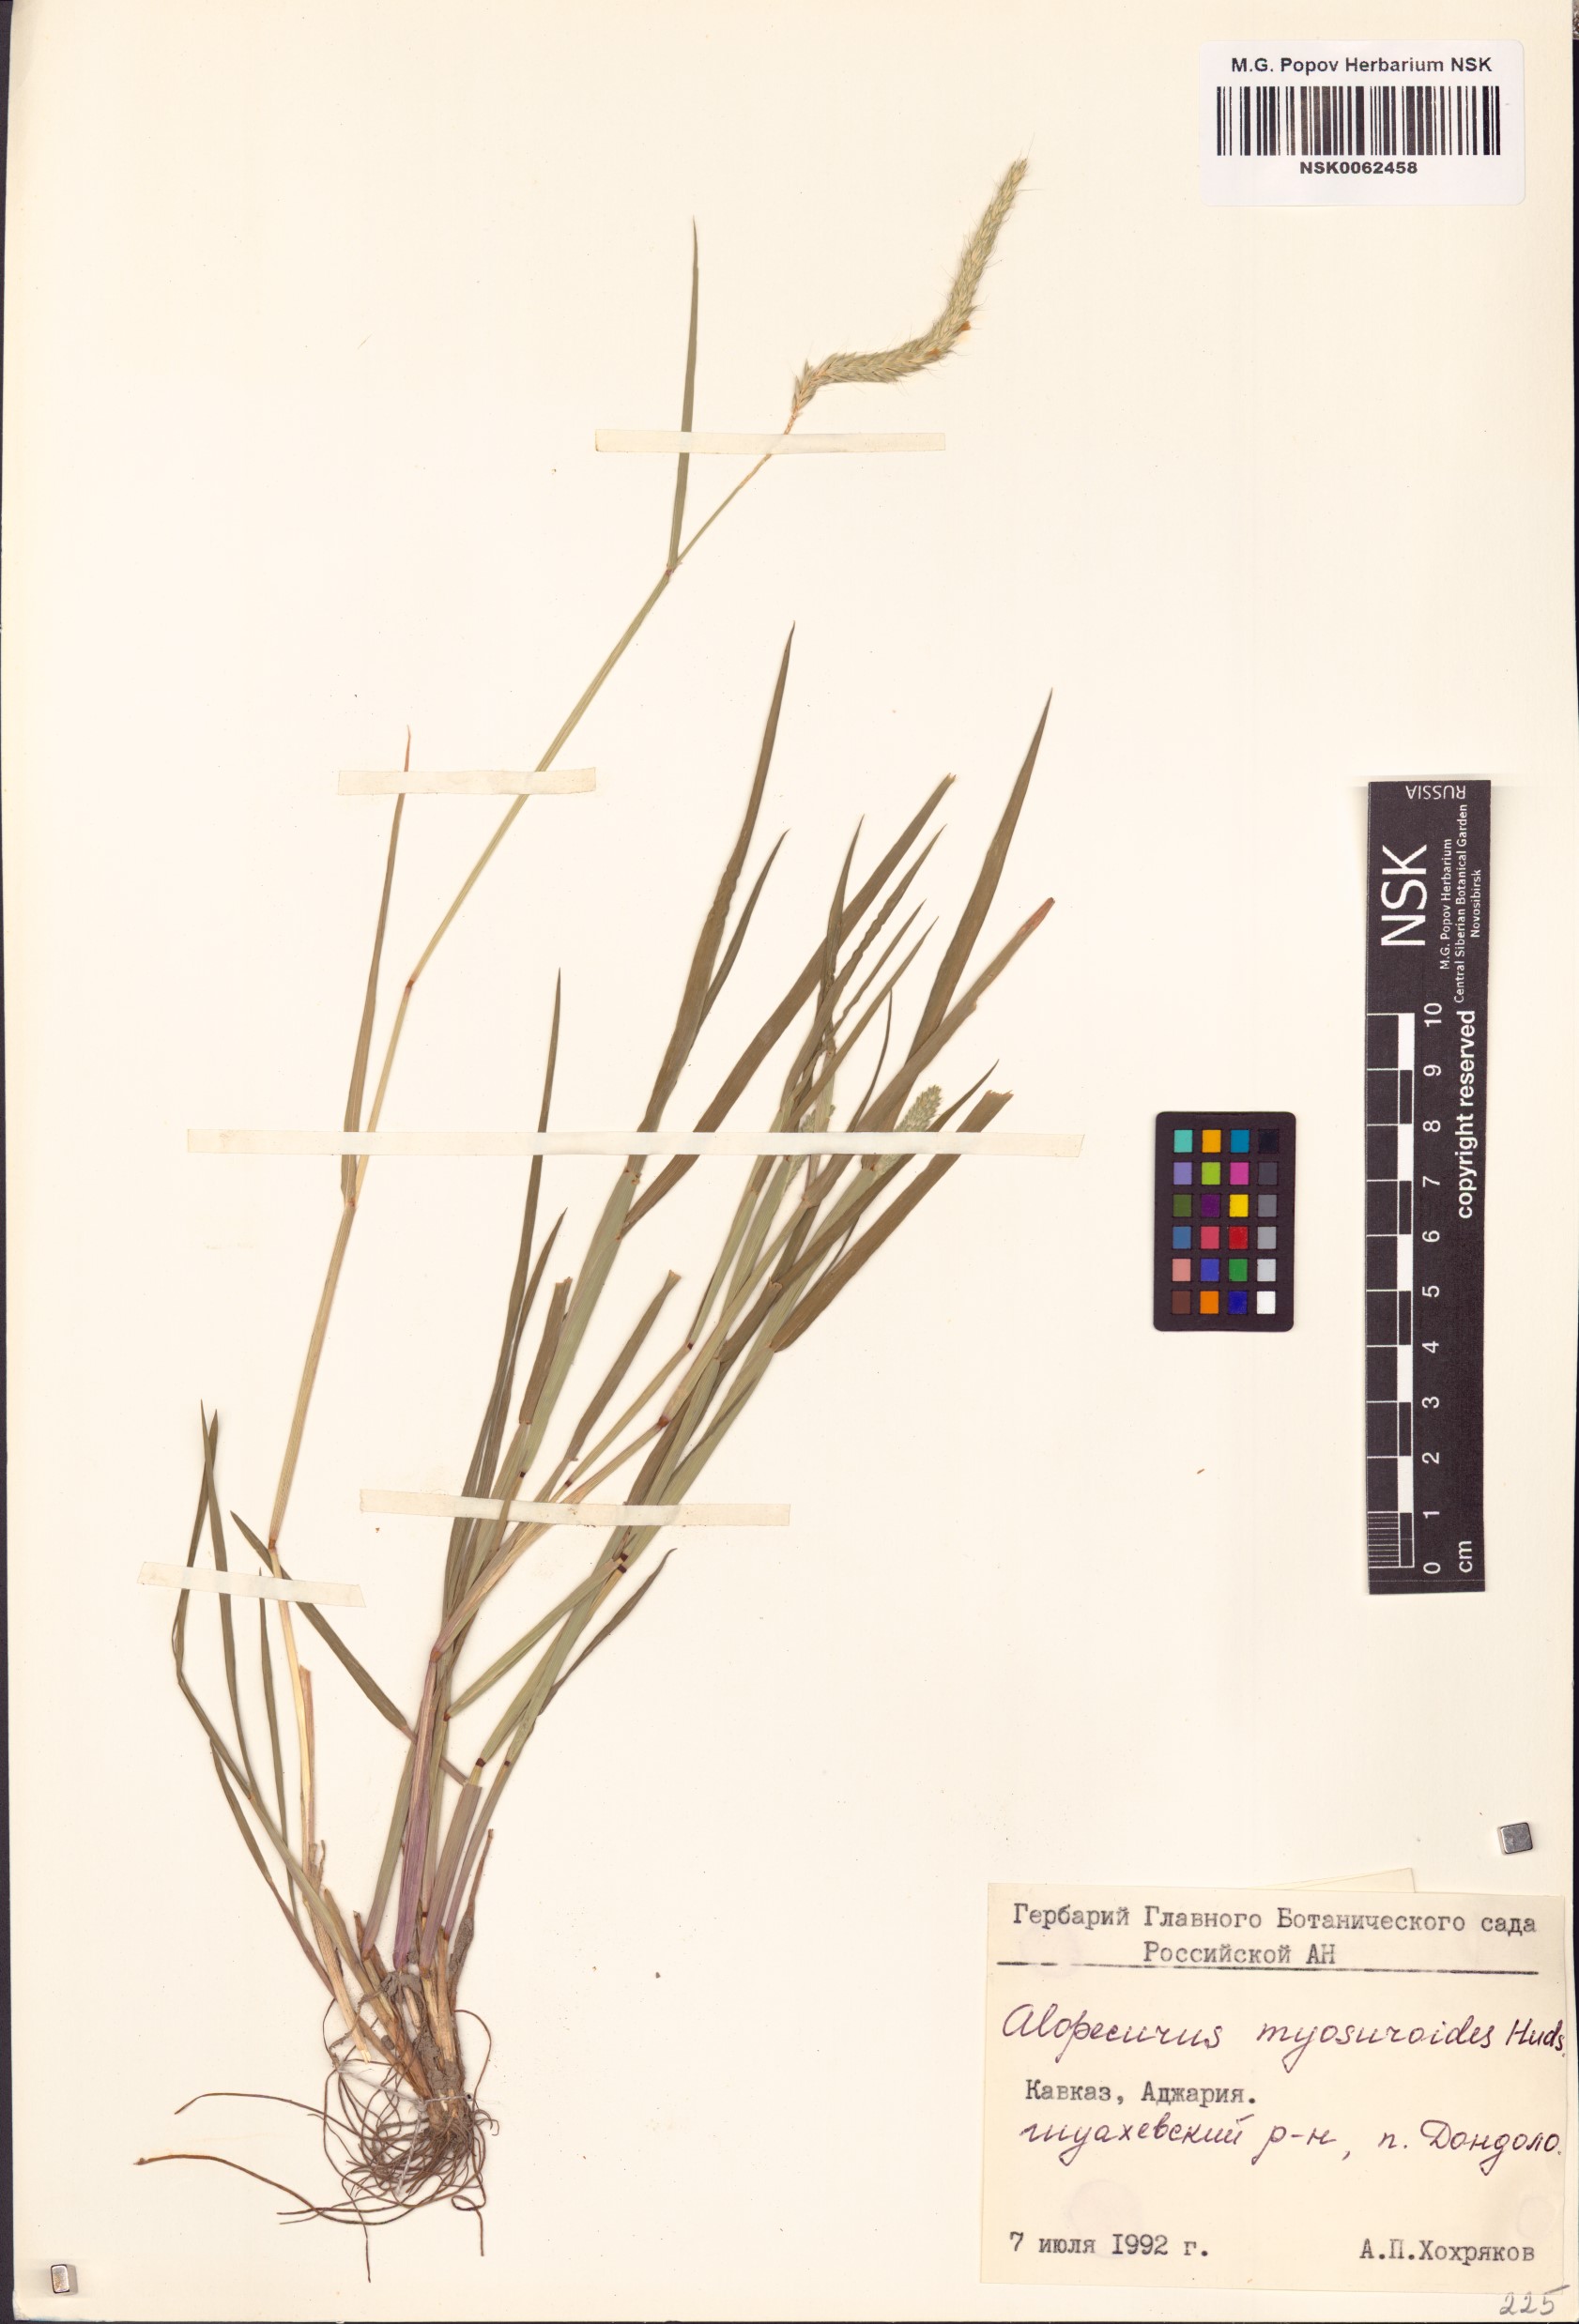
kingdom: Plantae
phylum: Tracheophyta
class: Liliopsida
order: Poales
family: Poaceae
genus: Alopecurus
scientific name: Alopecurus myosuroides
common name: Black-grass
